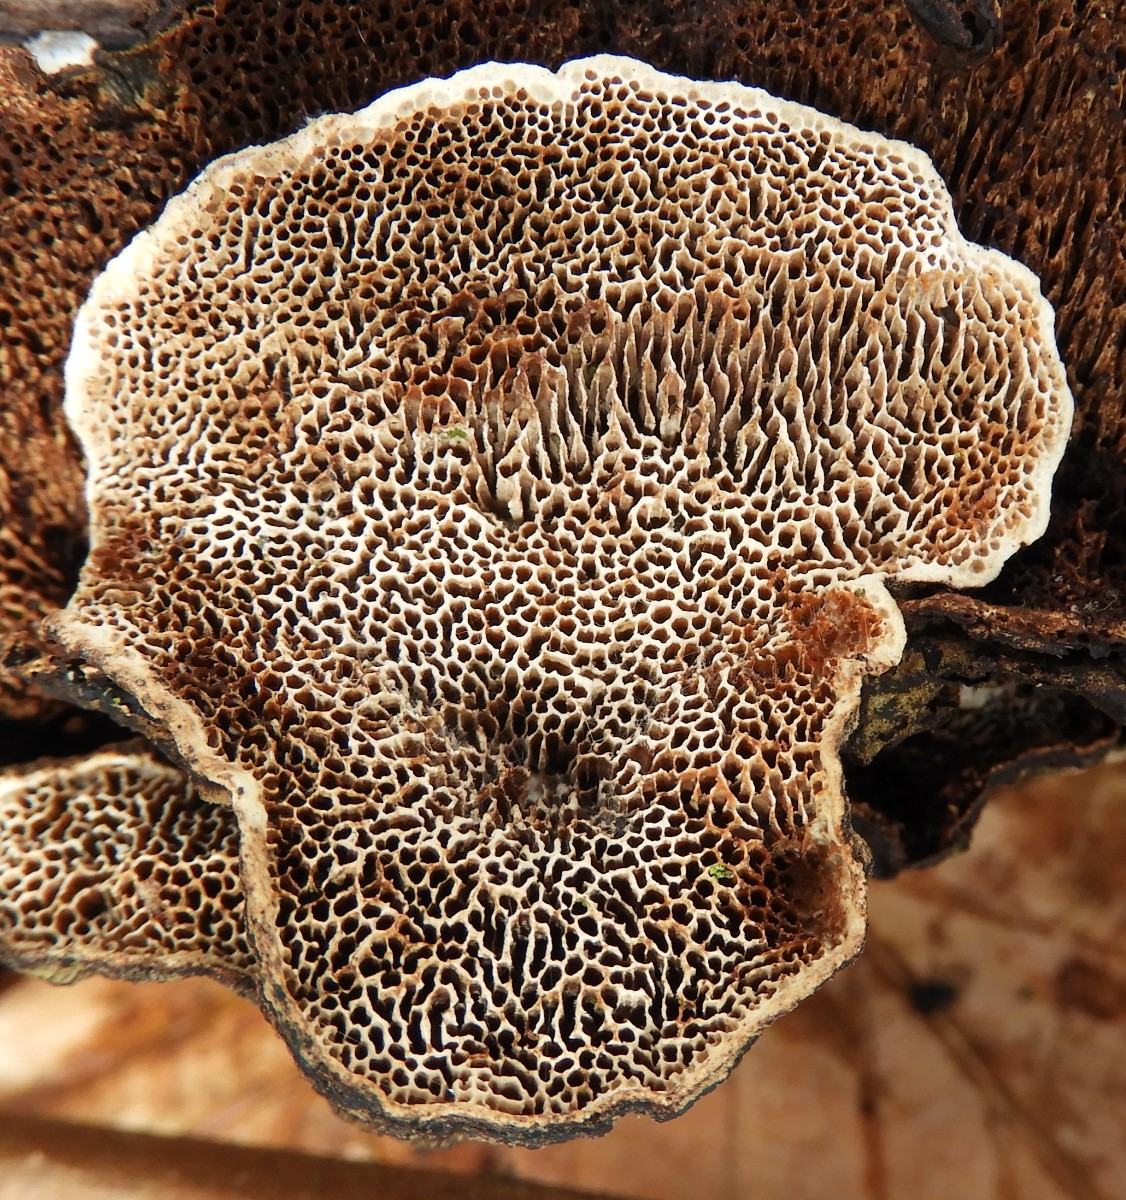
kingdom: Fungi
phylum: Basidiomycota
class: Agaricomycetes
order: Polyporales
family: Polyporaceae
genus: Podofomes
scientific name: Podofomes mollis
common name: blød begporesvamp
